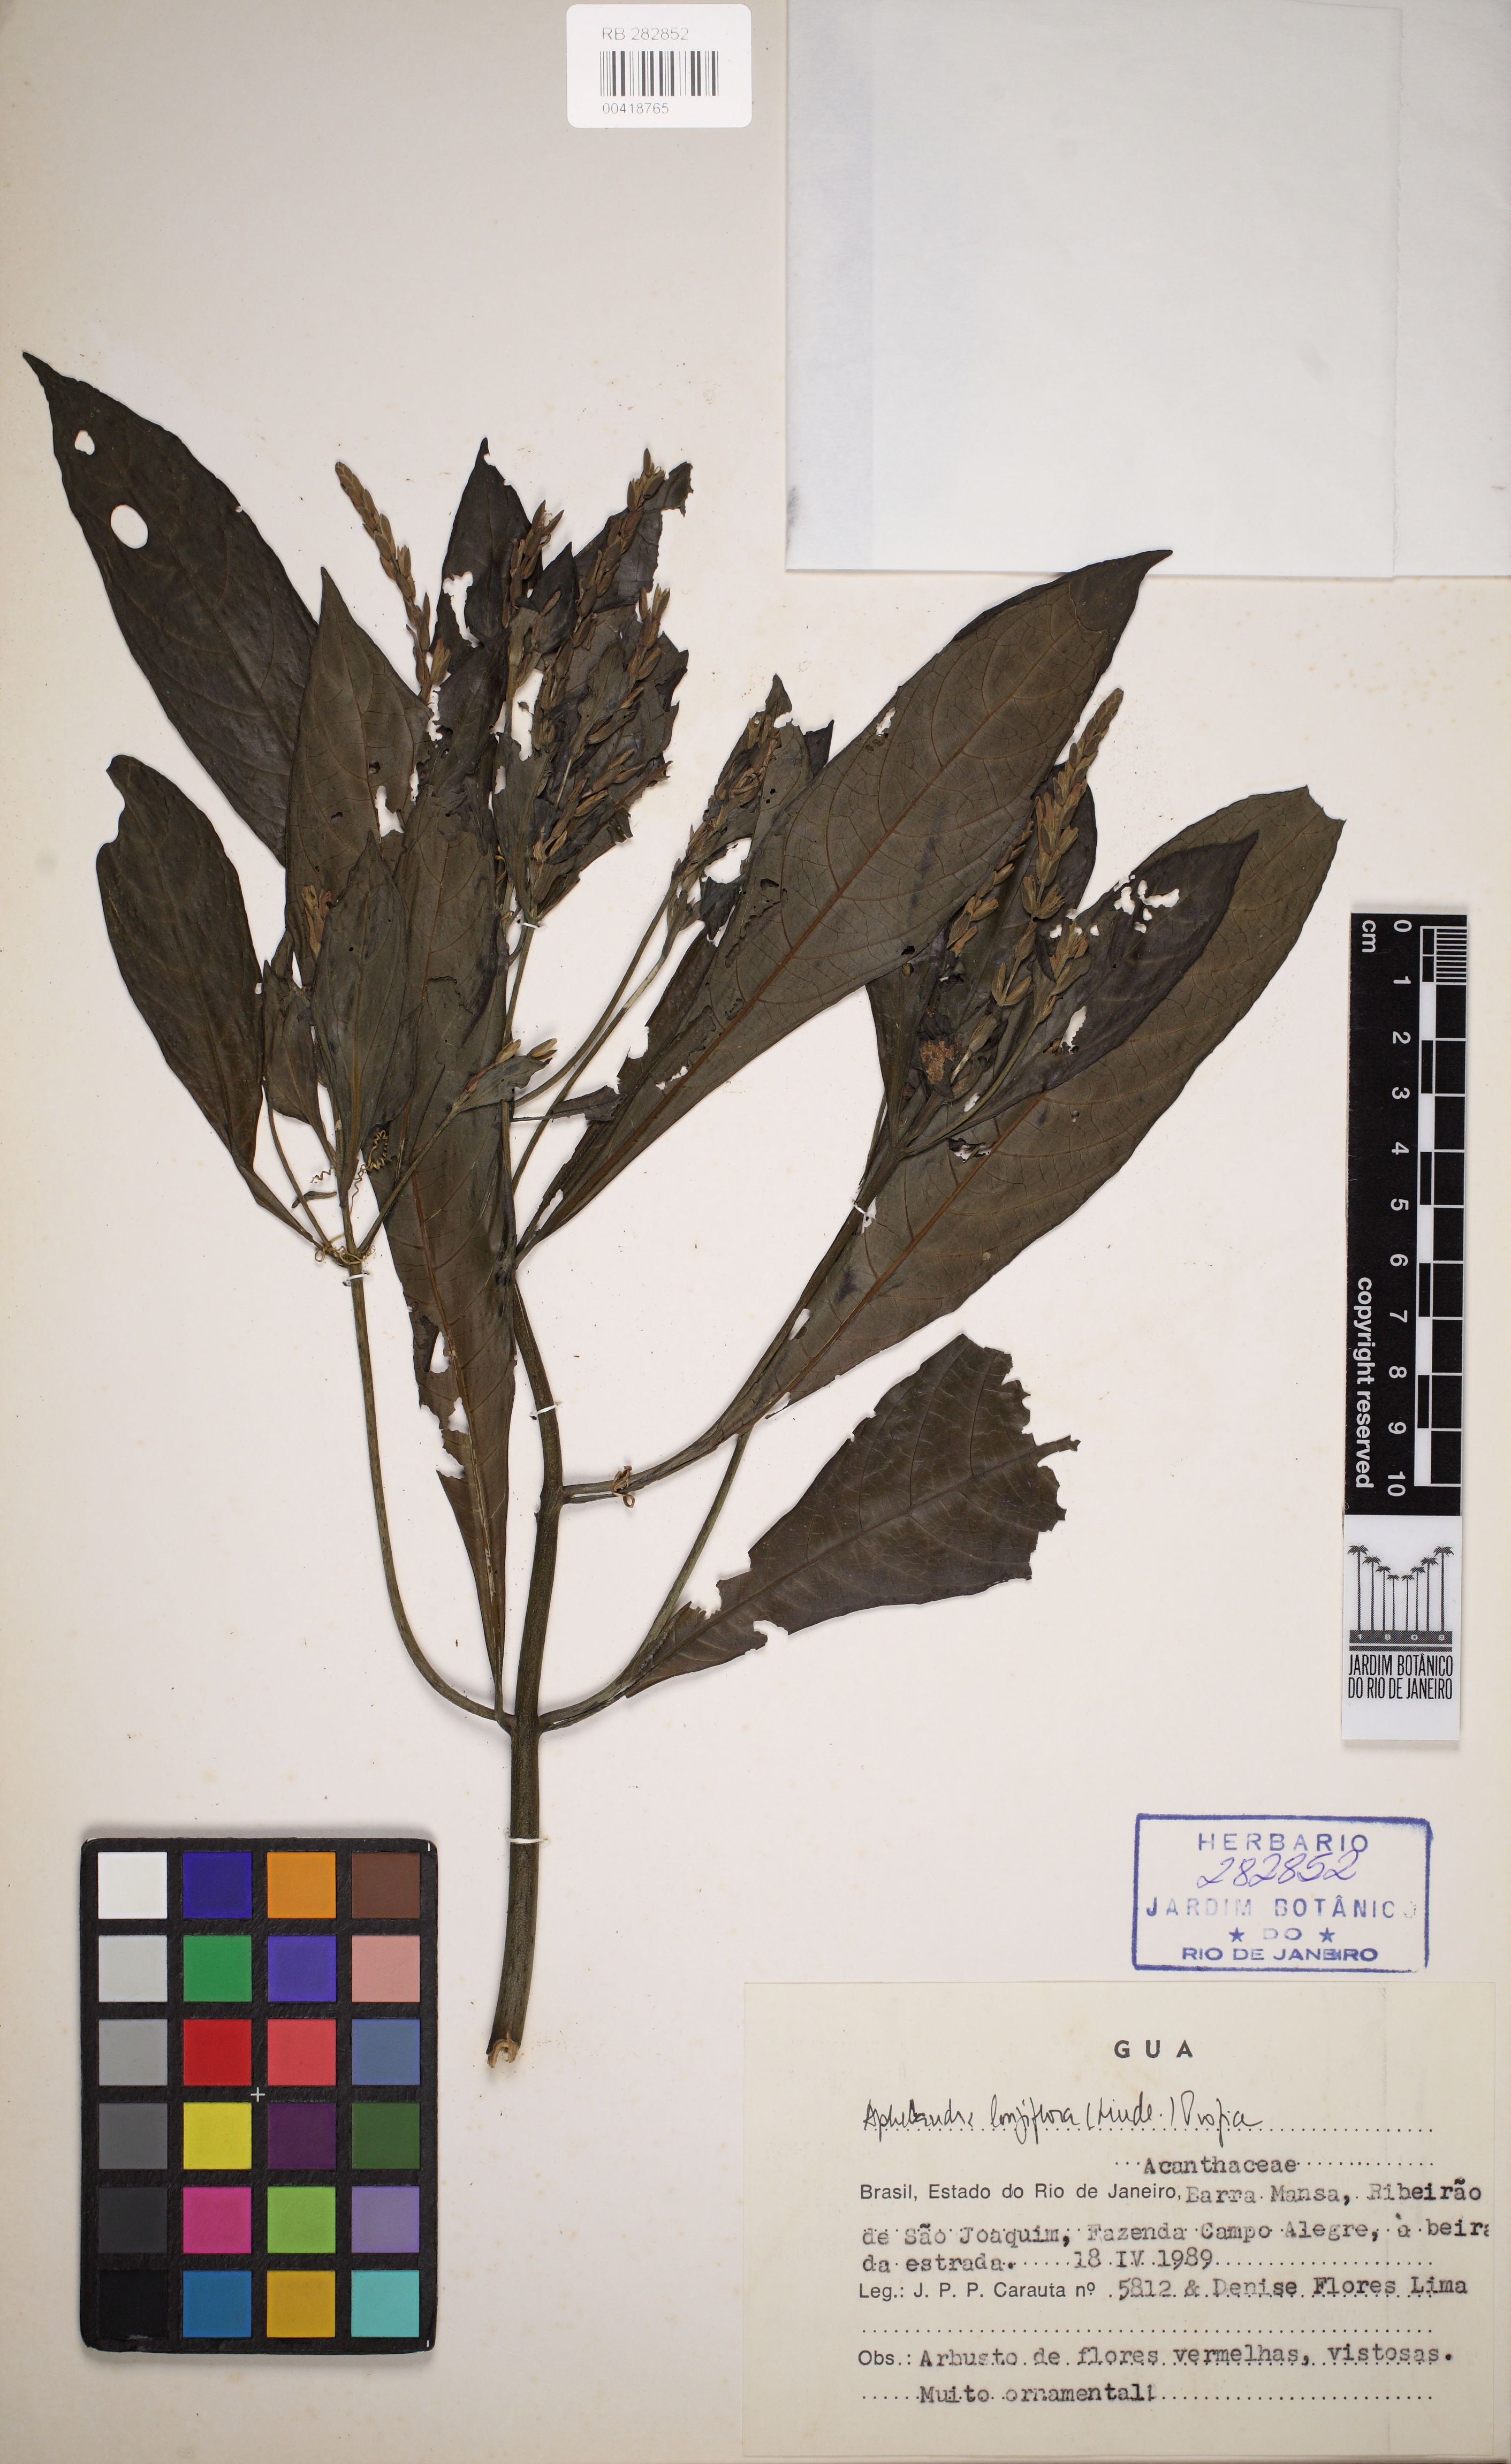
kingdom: Plantae
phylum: Tracheophyta
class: Magnoliopsida
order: Lamiales
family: Acanthaceae
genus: Aphelandra
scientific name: Aphelandra longiflora
